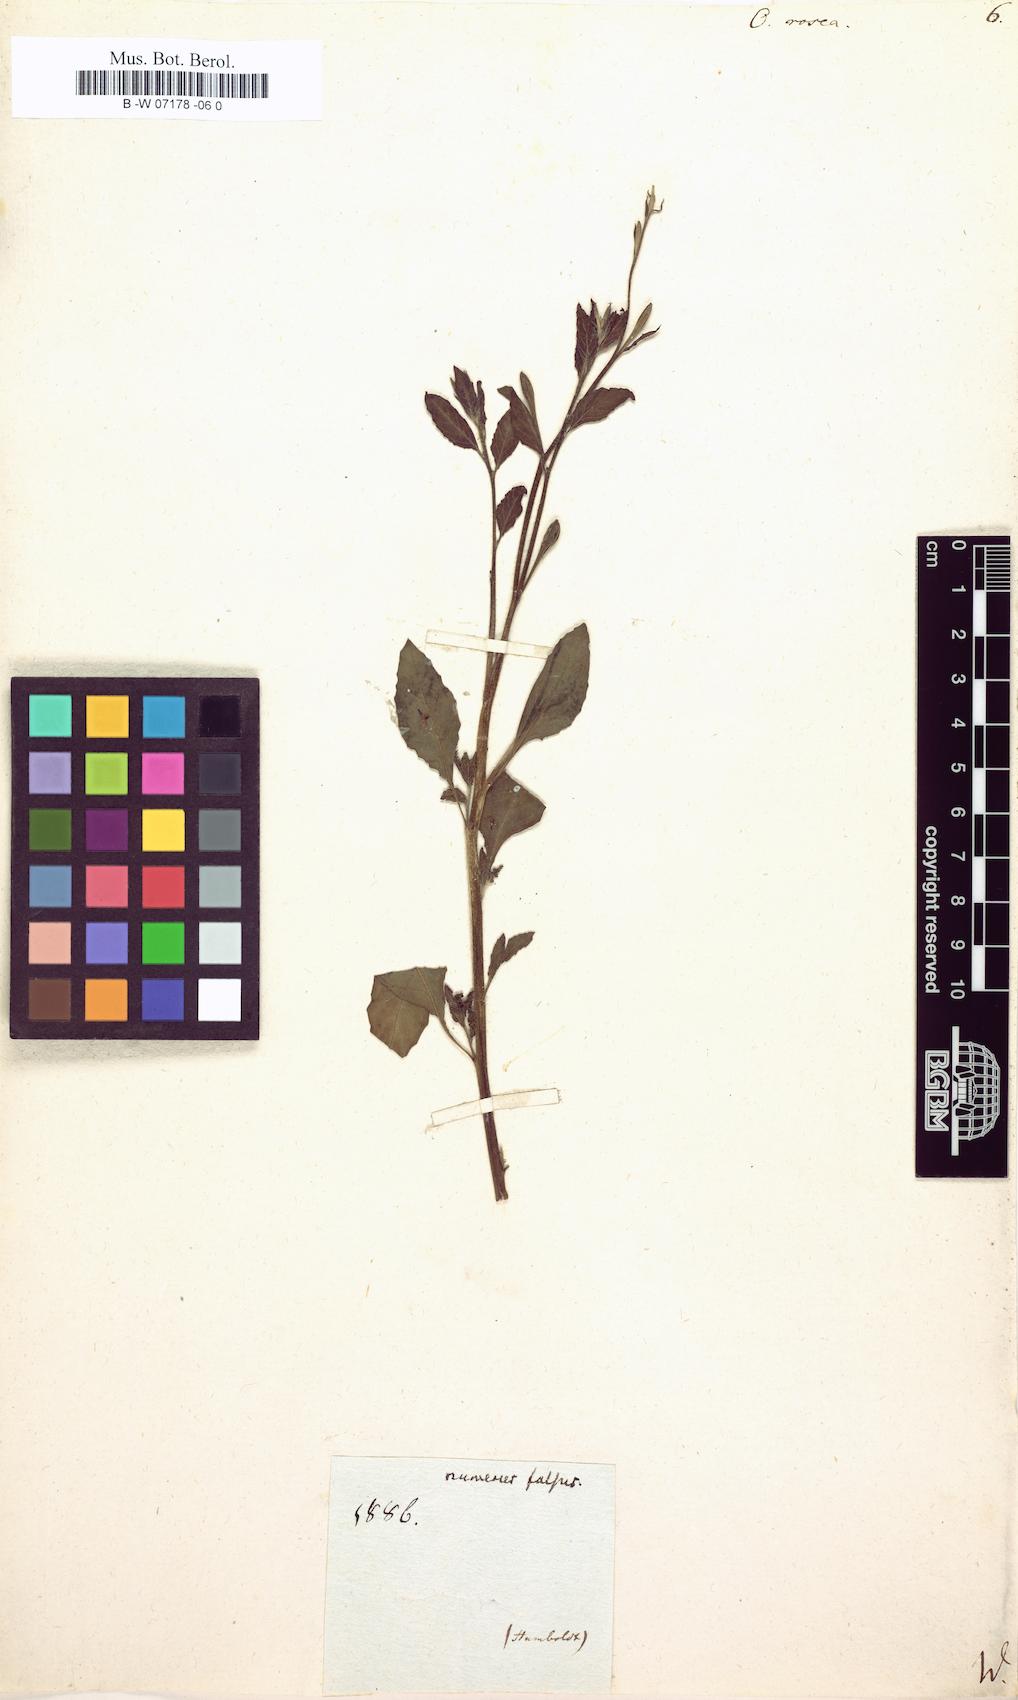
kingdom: Plantae
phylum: Tracheophyta
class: Magnoliopsida
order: Myrtales
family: Onagraceae
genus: Oenothera
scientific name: Oenothera rosea
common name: Rosy evening-primrose
